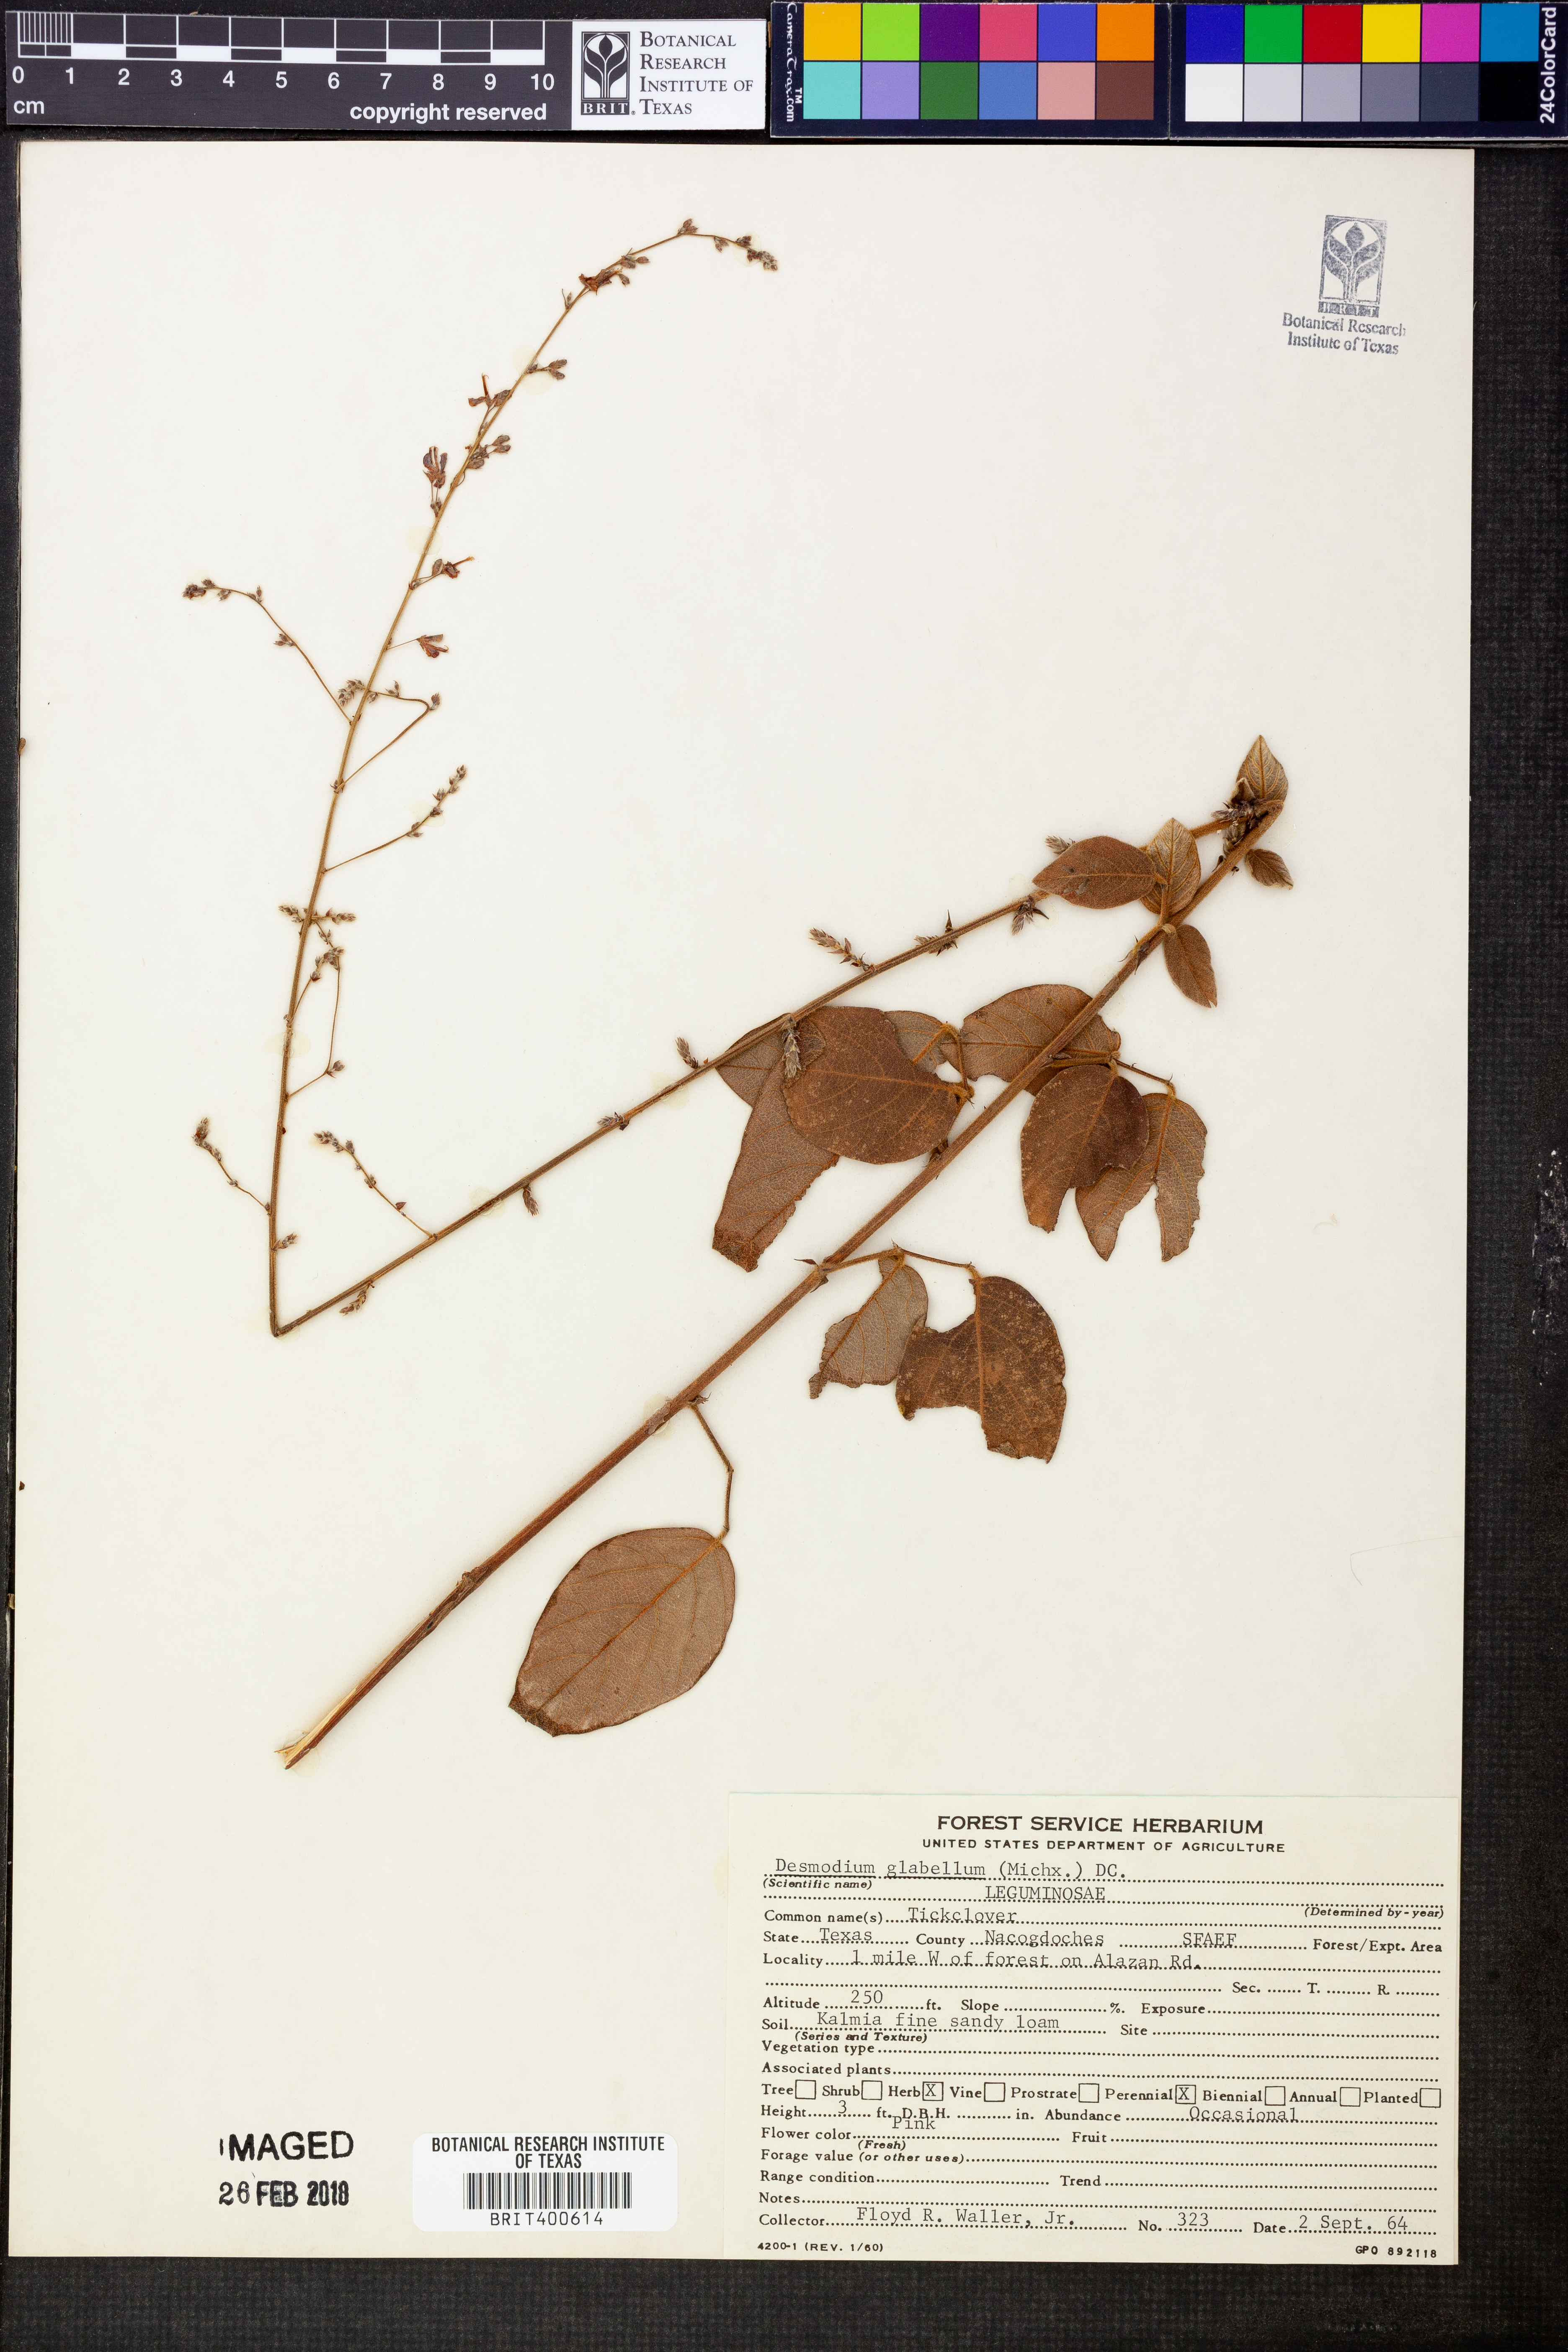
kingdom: Plantae
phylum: Tracheophyta
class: Magnoliopsida
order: Fabales
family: Fabaceae
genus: Desmodium
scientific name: Desmodium glabellum
